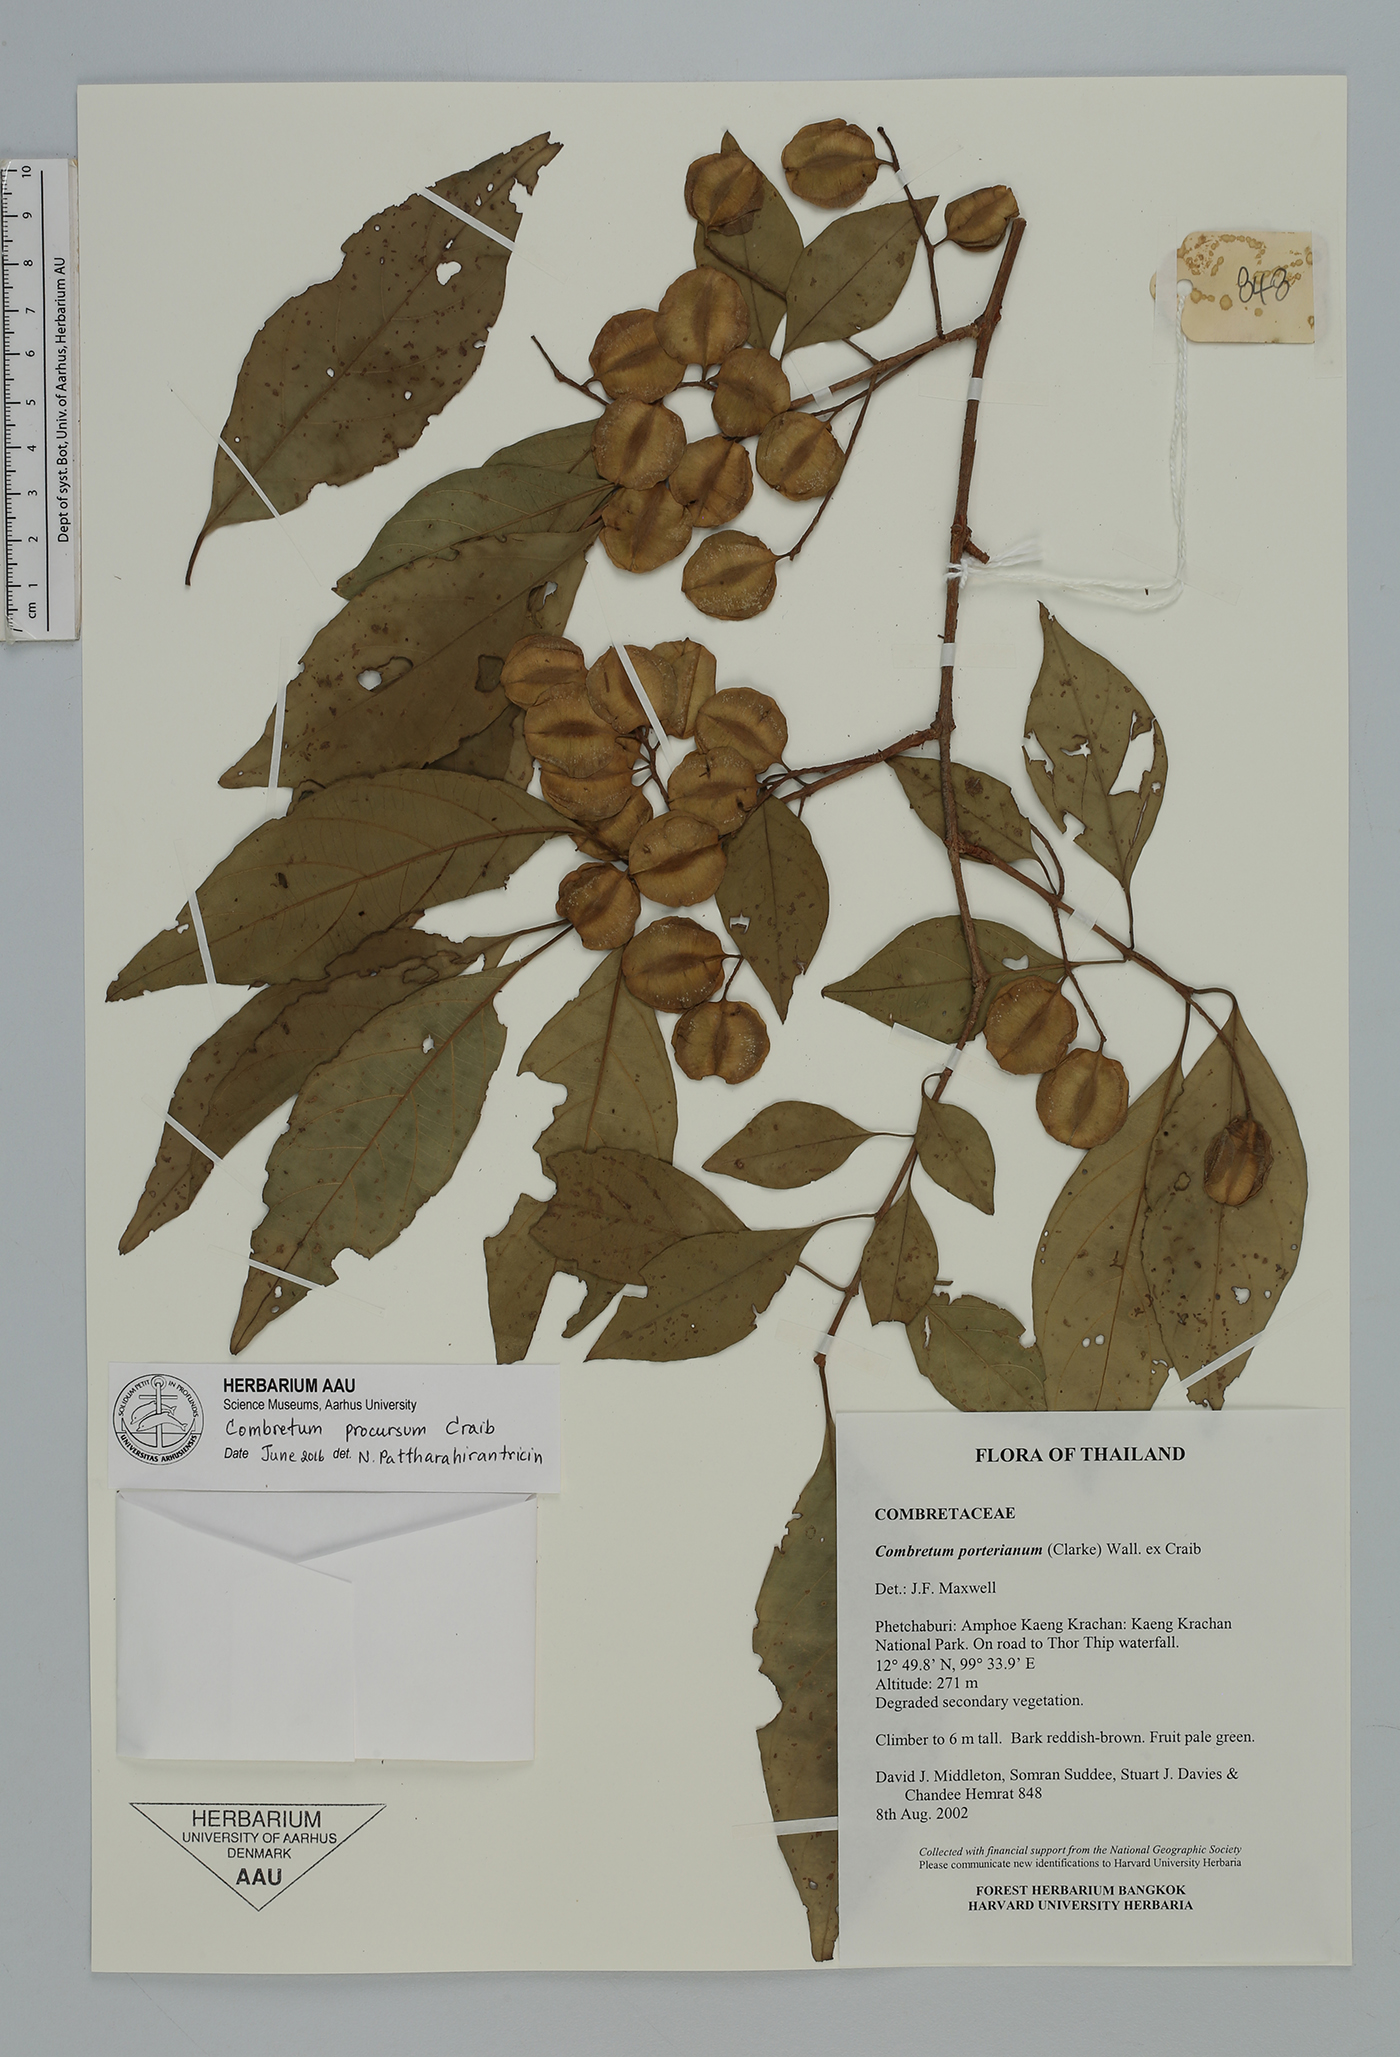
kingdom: Plantae
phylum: Tracheophyta
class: Magnoliopsida
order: Myrtales
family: Combretaceae
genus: Combretum
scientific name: Combretum procursum
